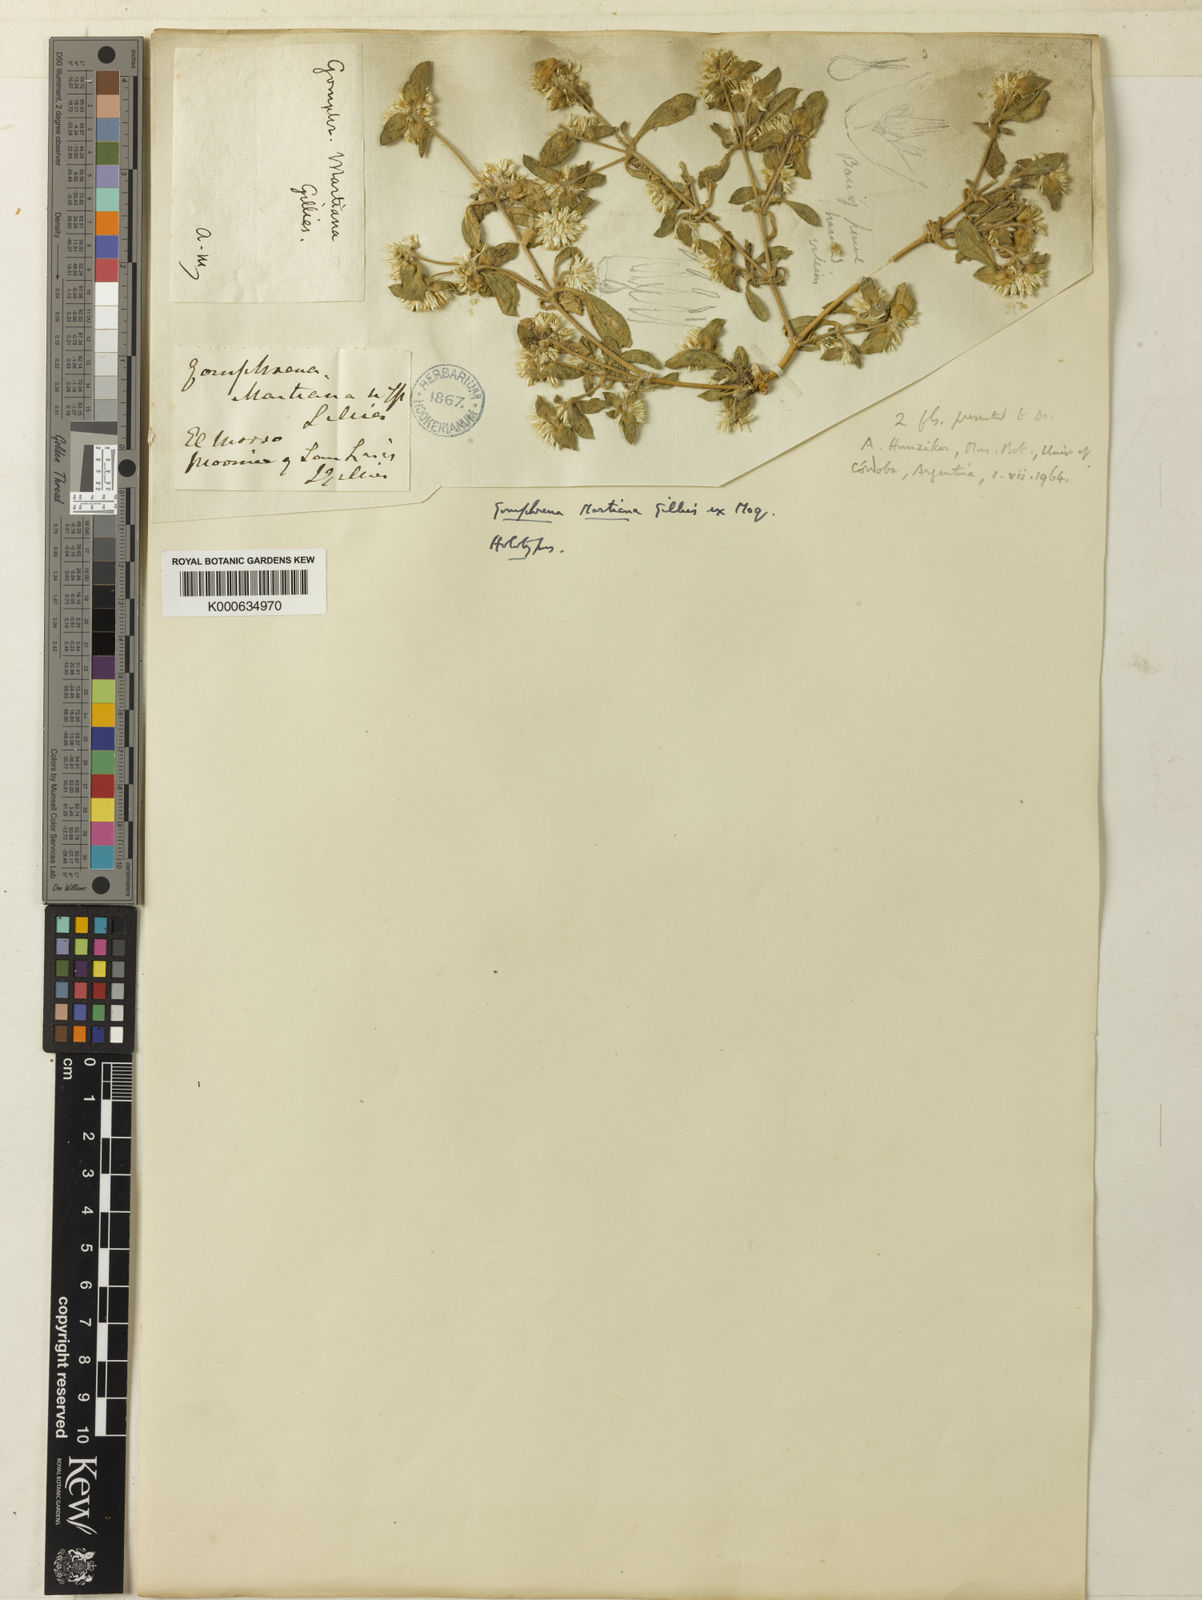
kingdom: Plantae
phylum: Tracheophyta
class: Magnoliopsida
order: Caryophyllales
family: Amaranthaceae
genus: Gomphrena
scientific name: Gomphrena martiana
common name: Globe amaranth
